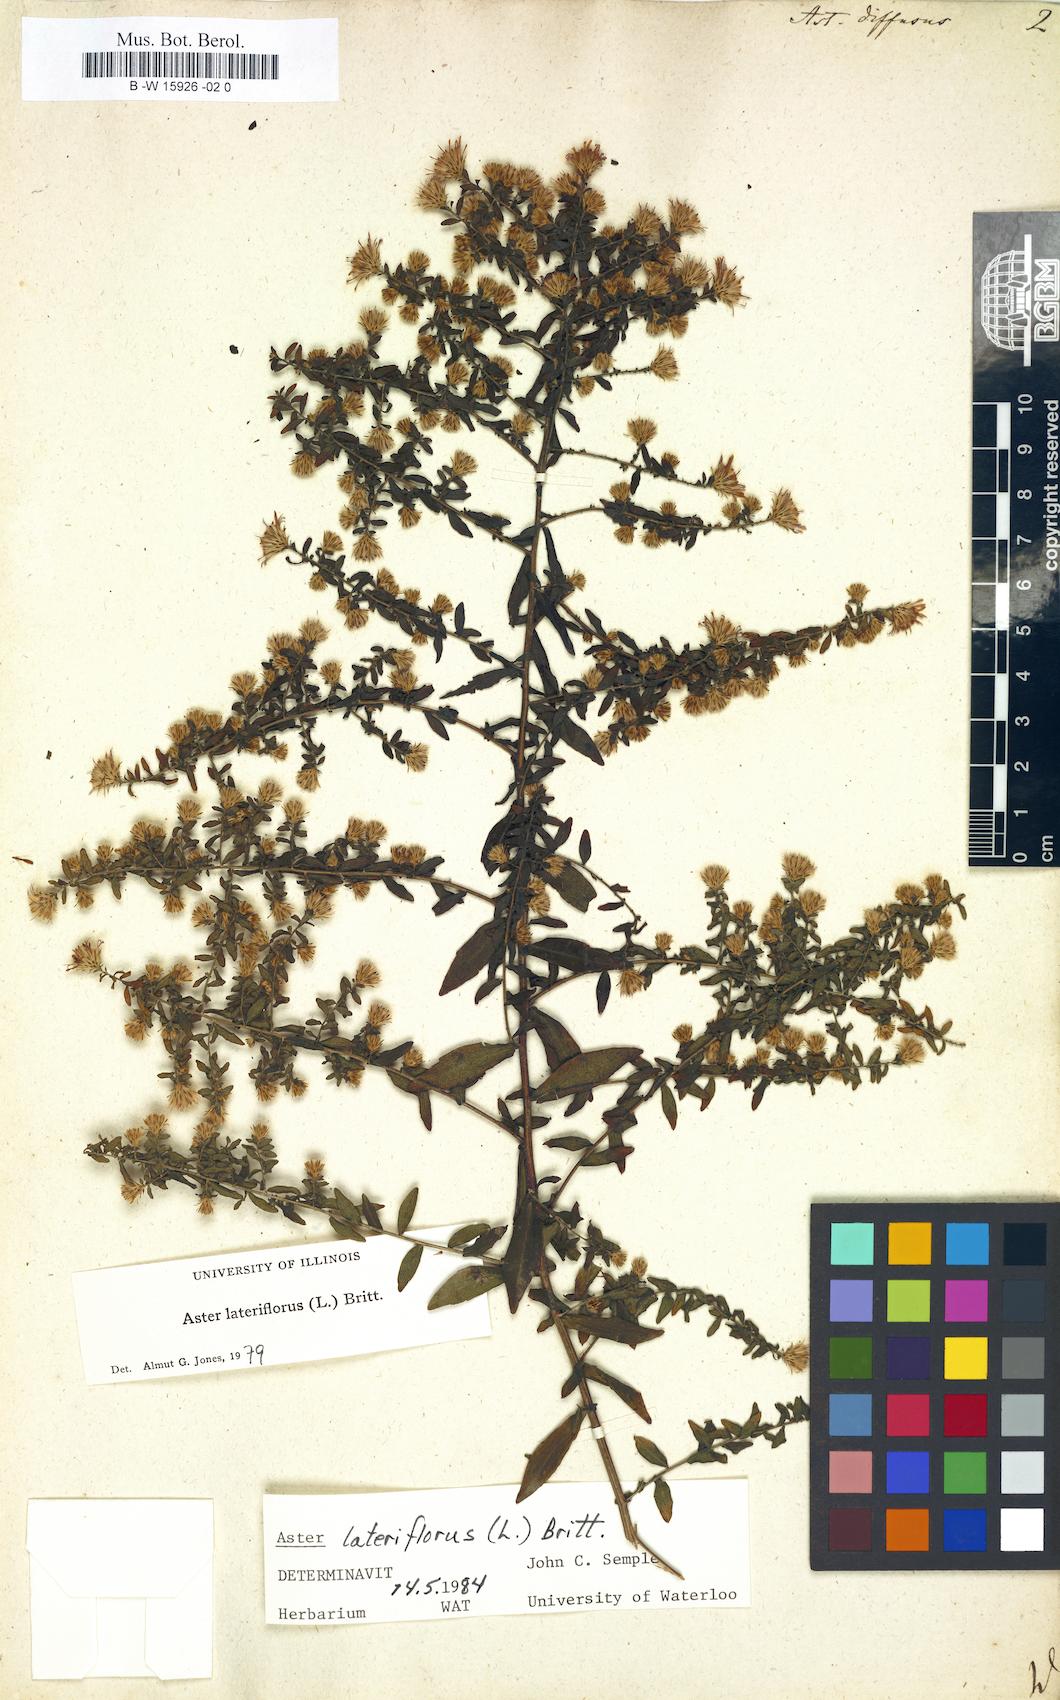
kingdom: Plantae
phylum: Tracheophyta
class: Magnoliopsida
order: Asterales
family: Asteraceae
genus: Aster
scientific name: Aster diffusus
